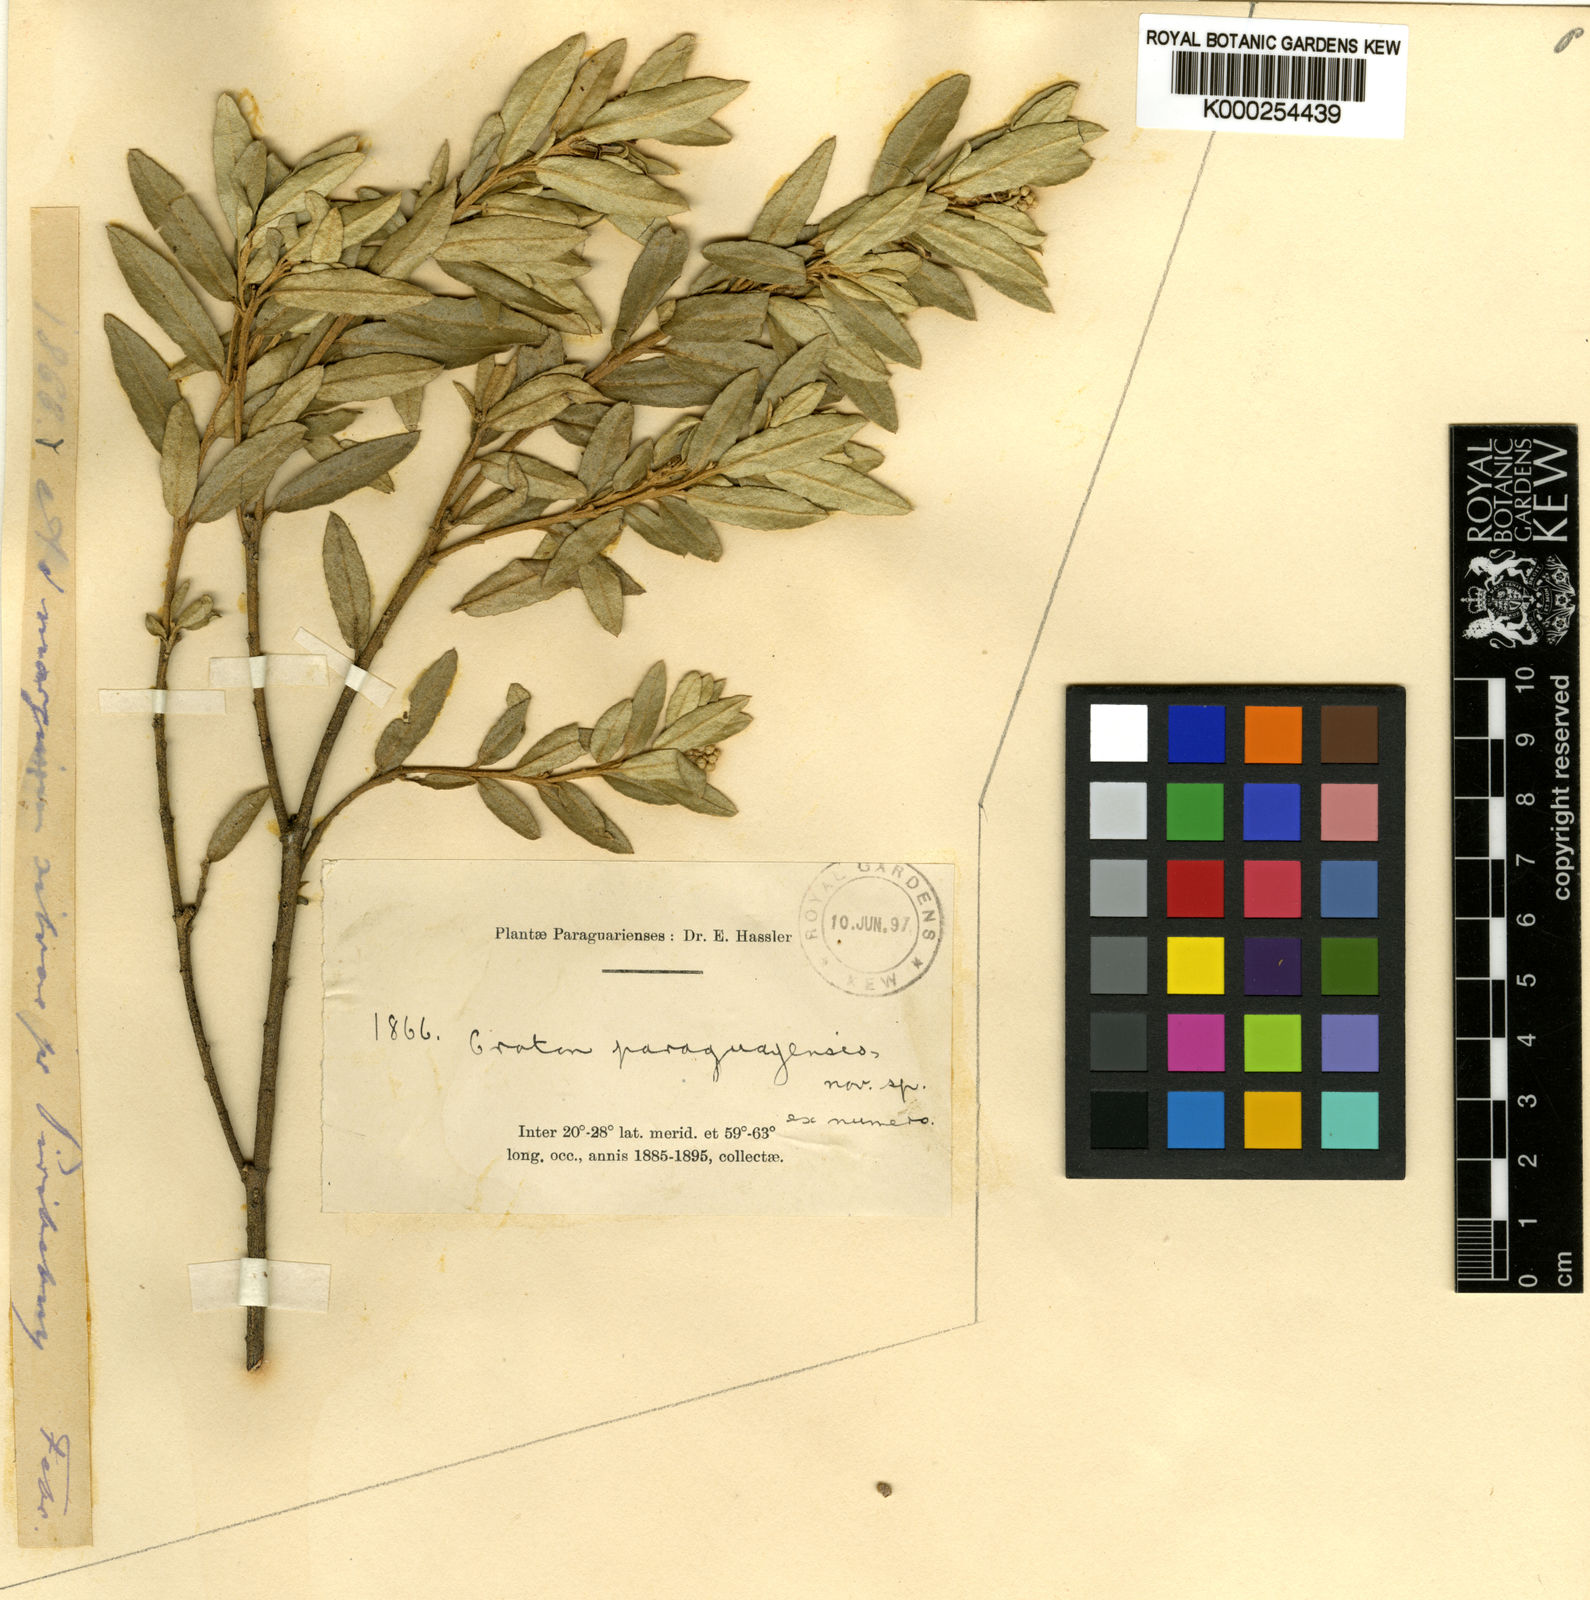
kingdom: Plantae
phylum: Tracheophyta
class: Magnoliopsida
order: Malpighiales
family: Euphorbiaceae
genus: Croton
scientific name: Croton paraguayensis
